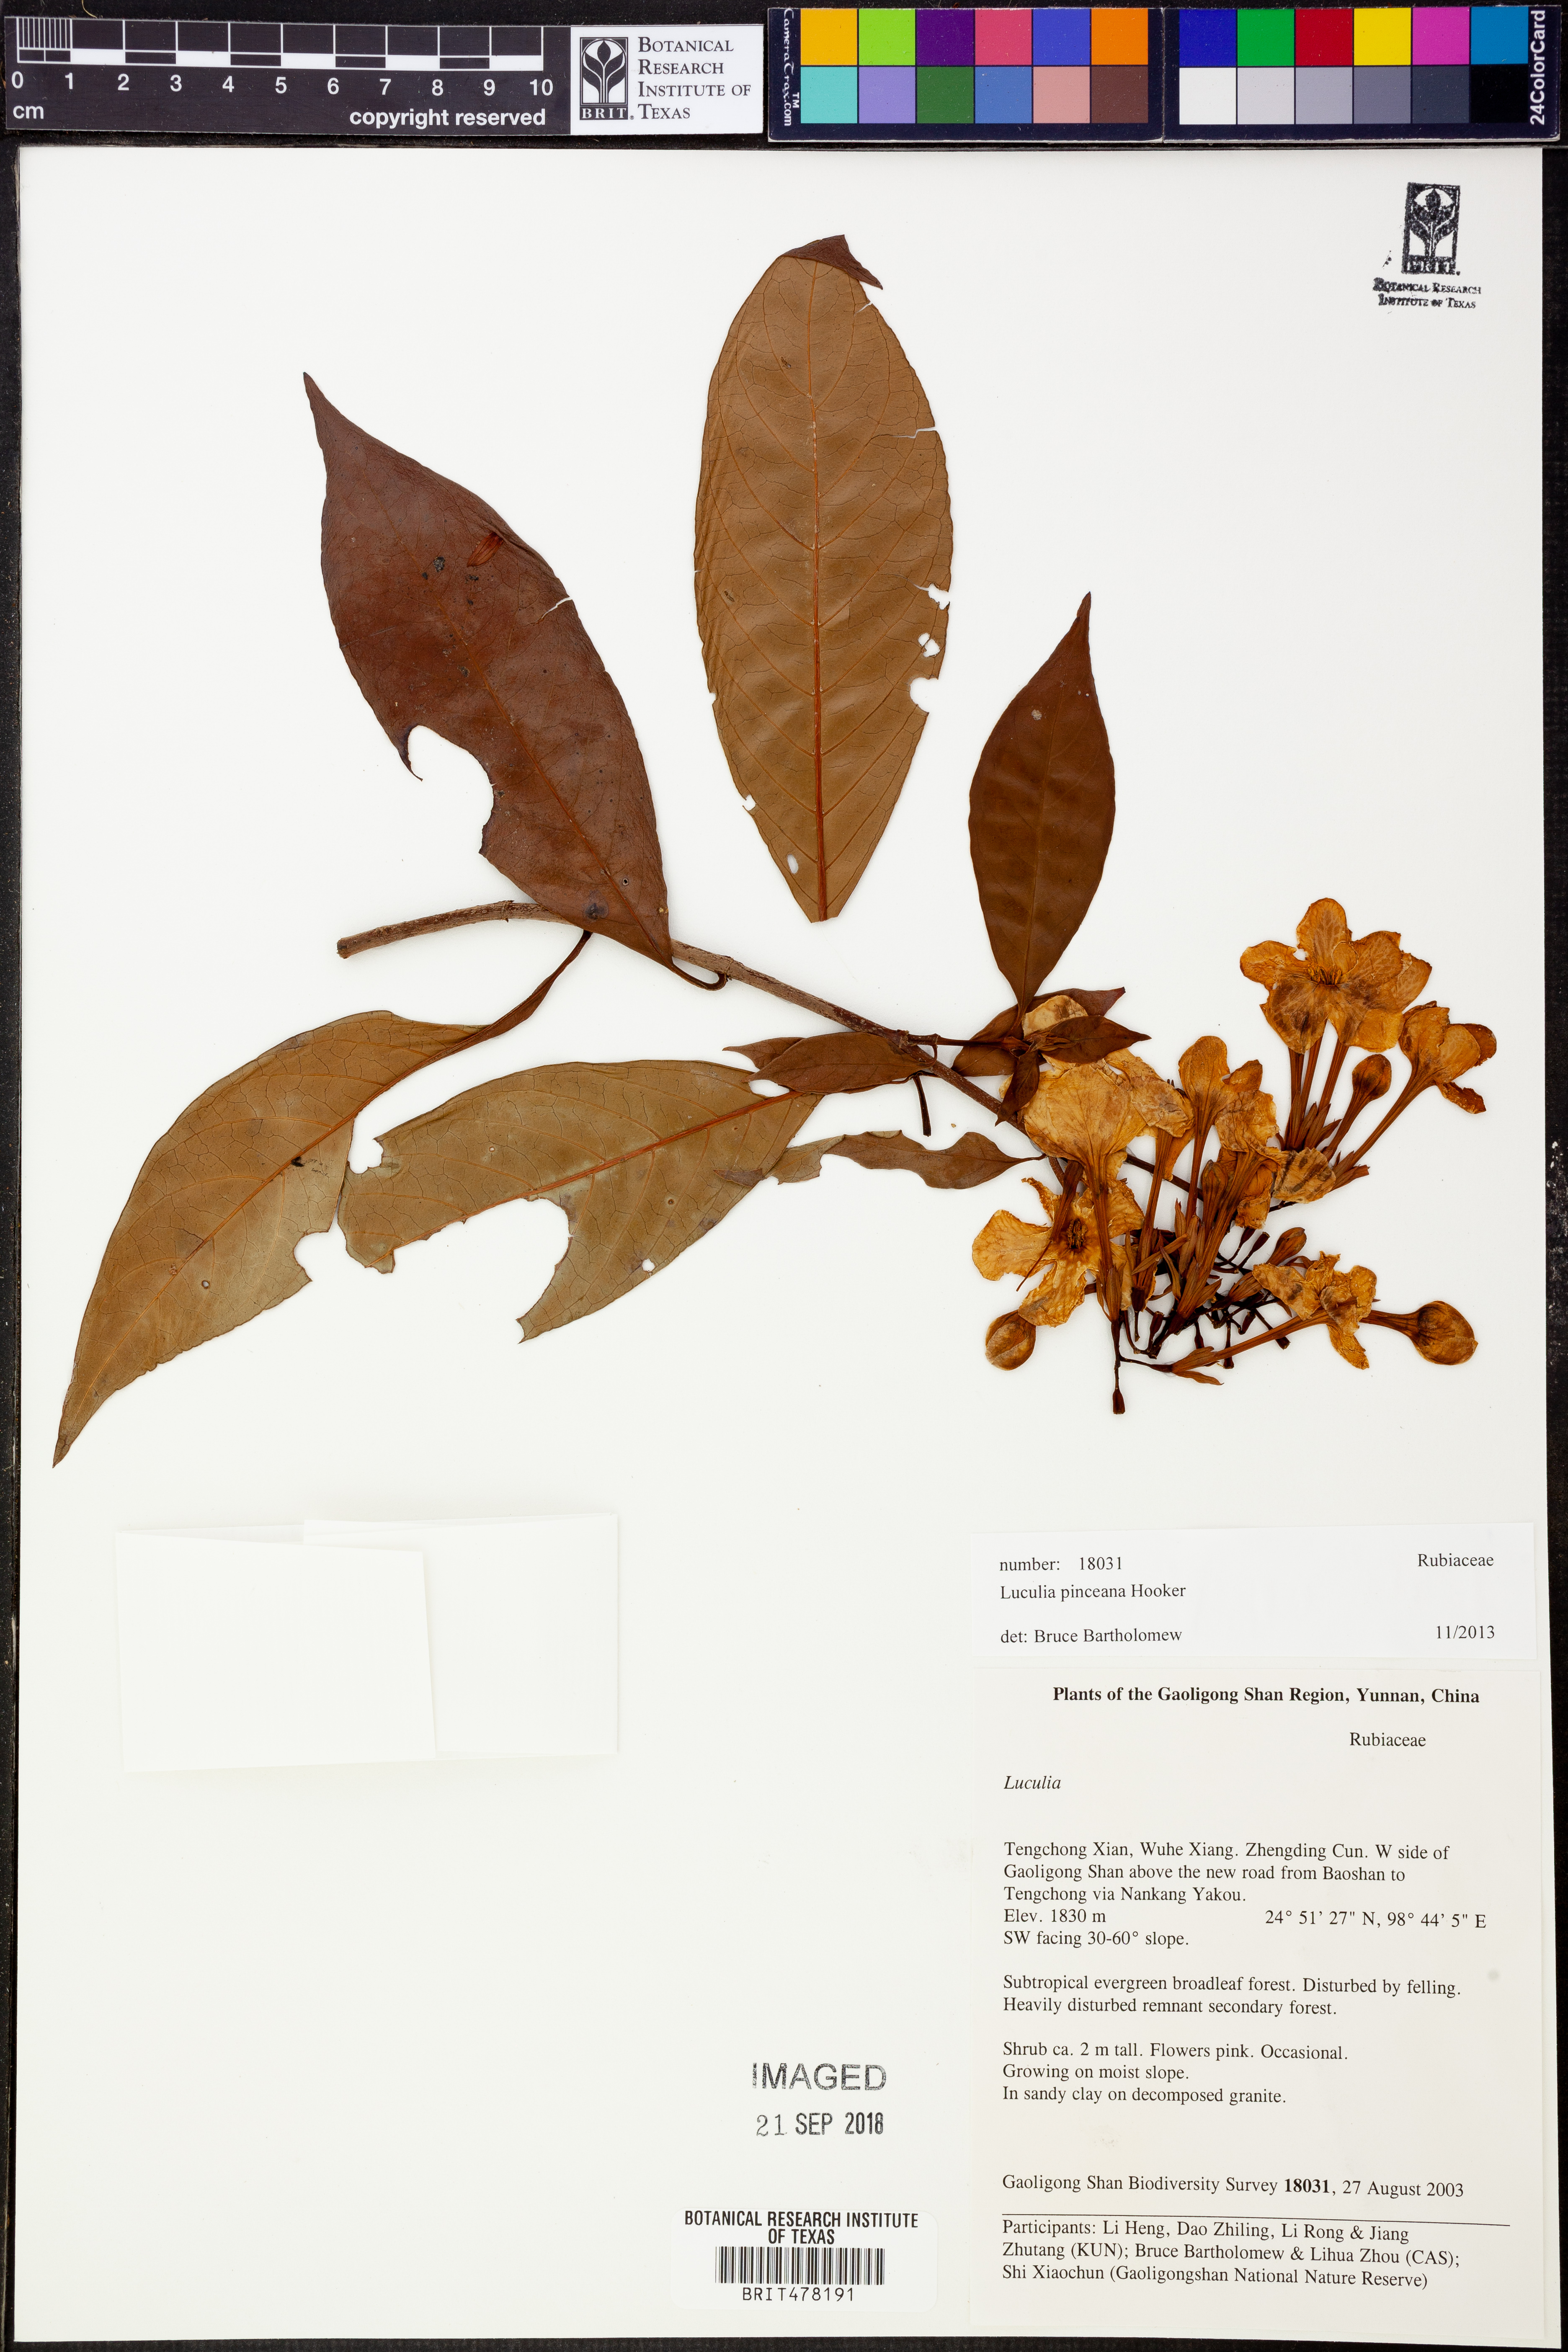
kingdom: Plantae
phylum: Tracheophyta
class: Magnoliopsida
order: Gentianales
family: Rubiaceae
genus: Luculia
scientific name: Luculia pinceana
